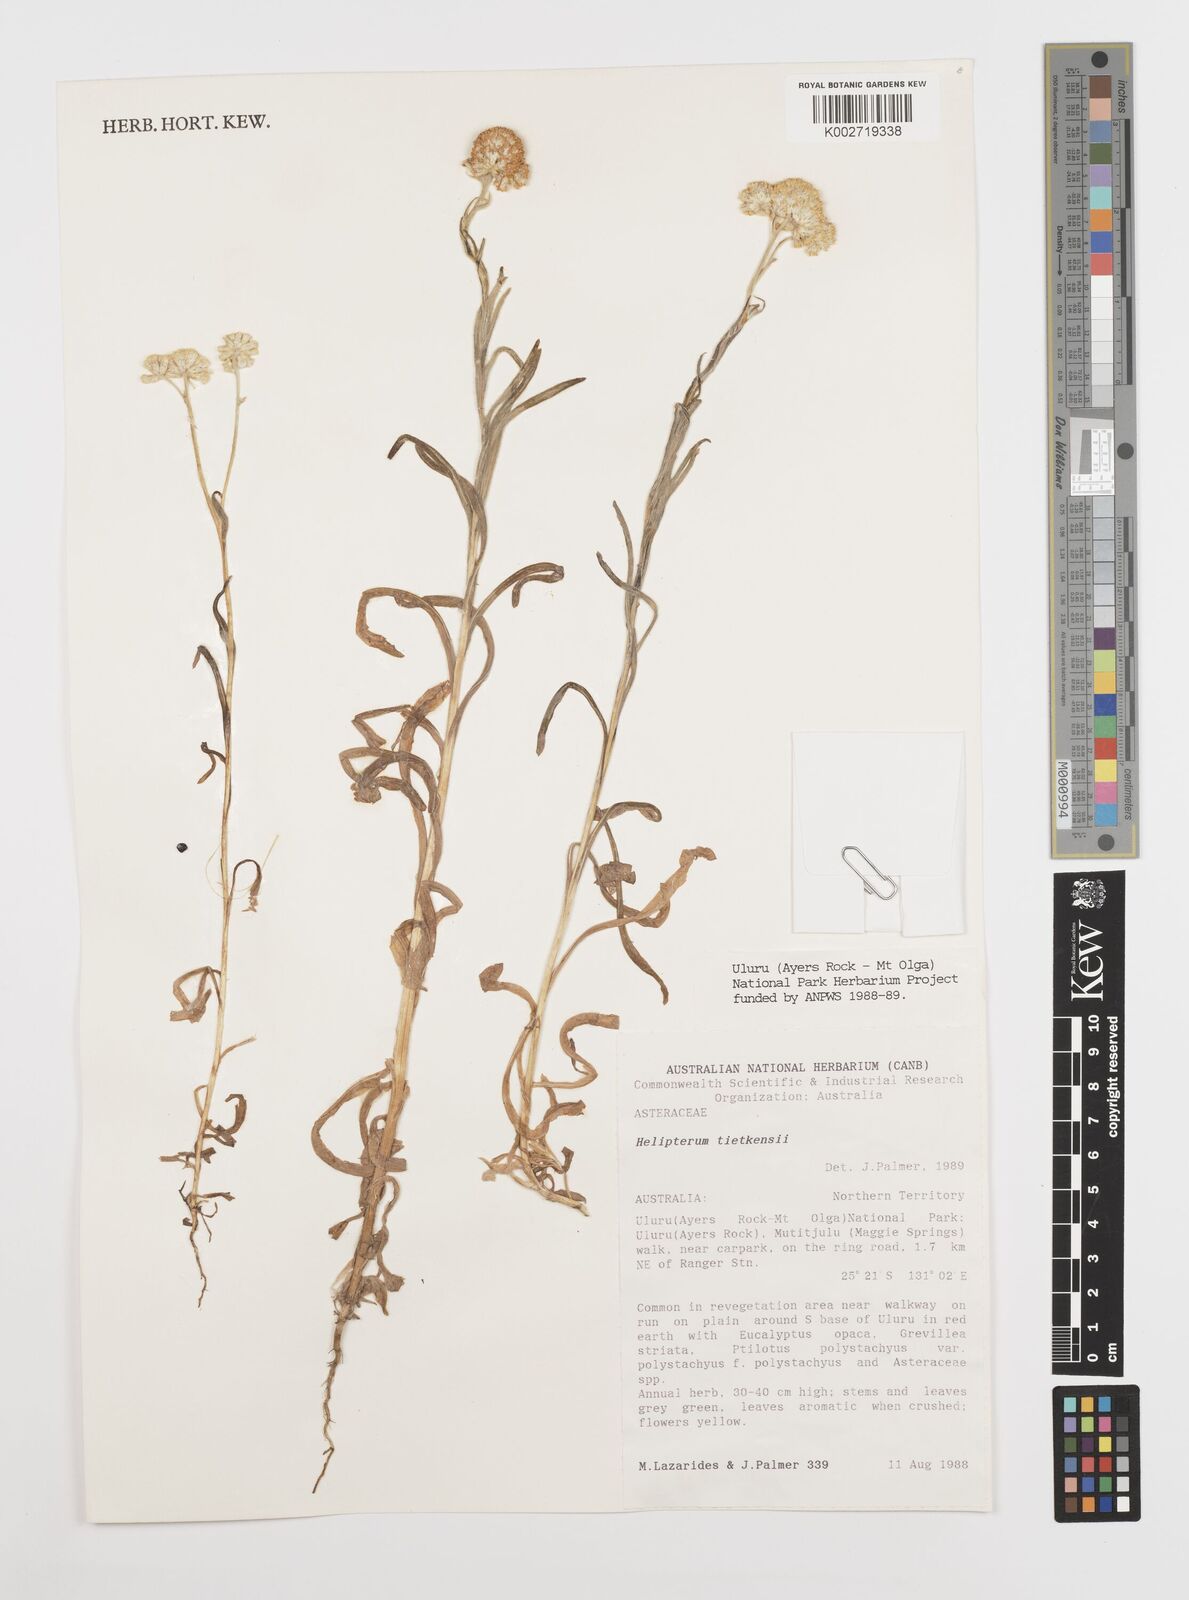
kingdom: Plantae
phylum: Tracheophyta
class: Magnoliopsida
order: Asterales
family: Asteraceae
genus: Rhodanthe
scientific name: Rhodanthe tietkensii
